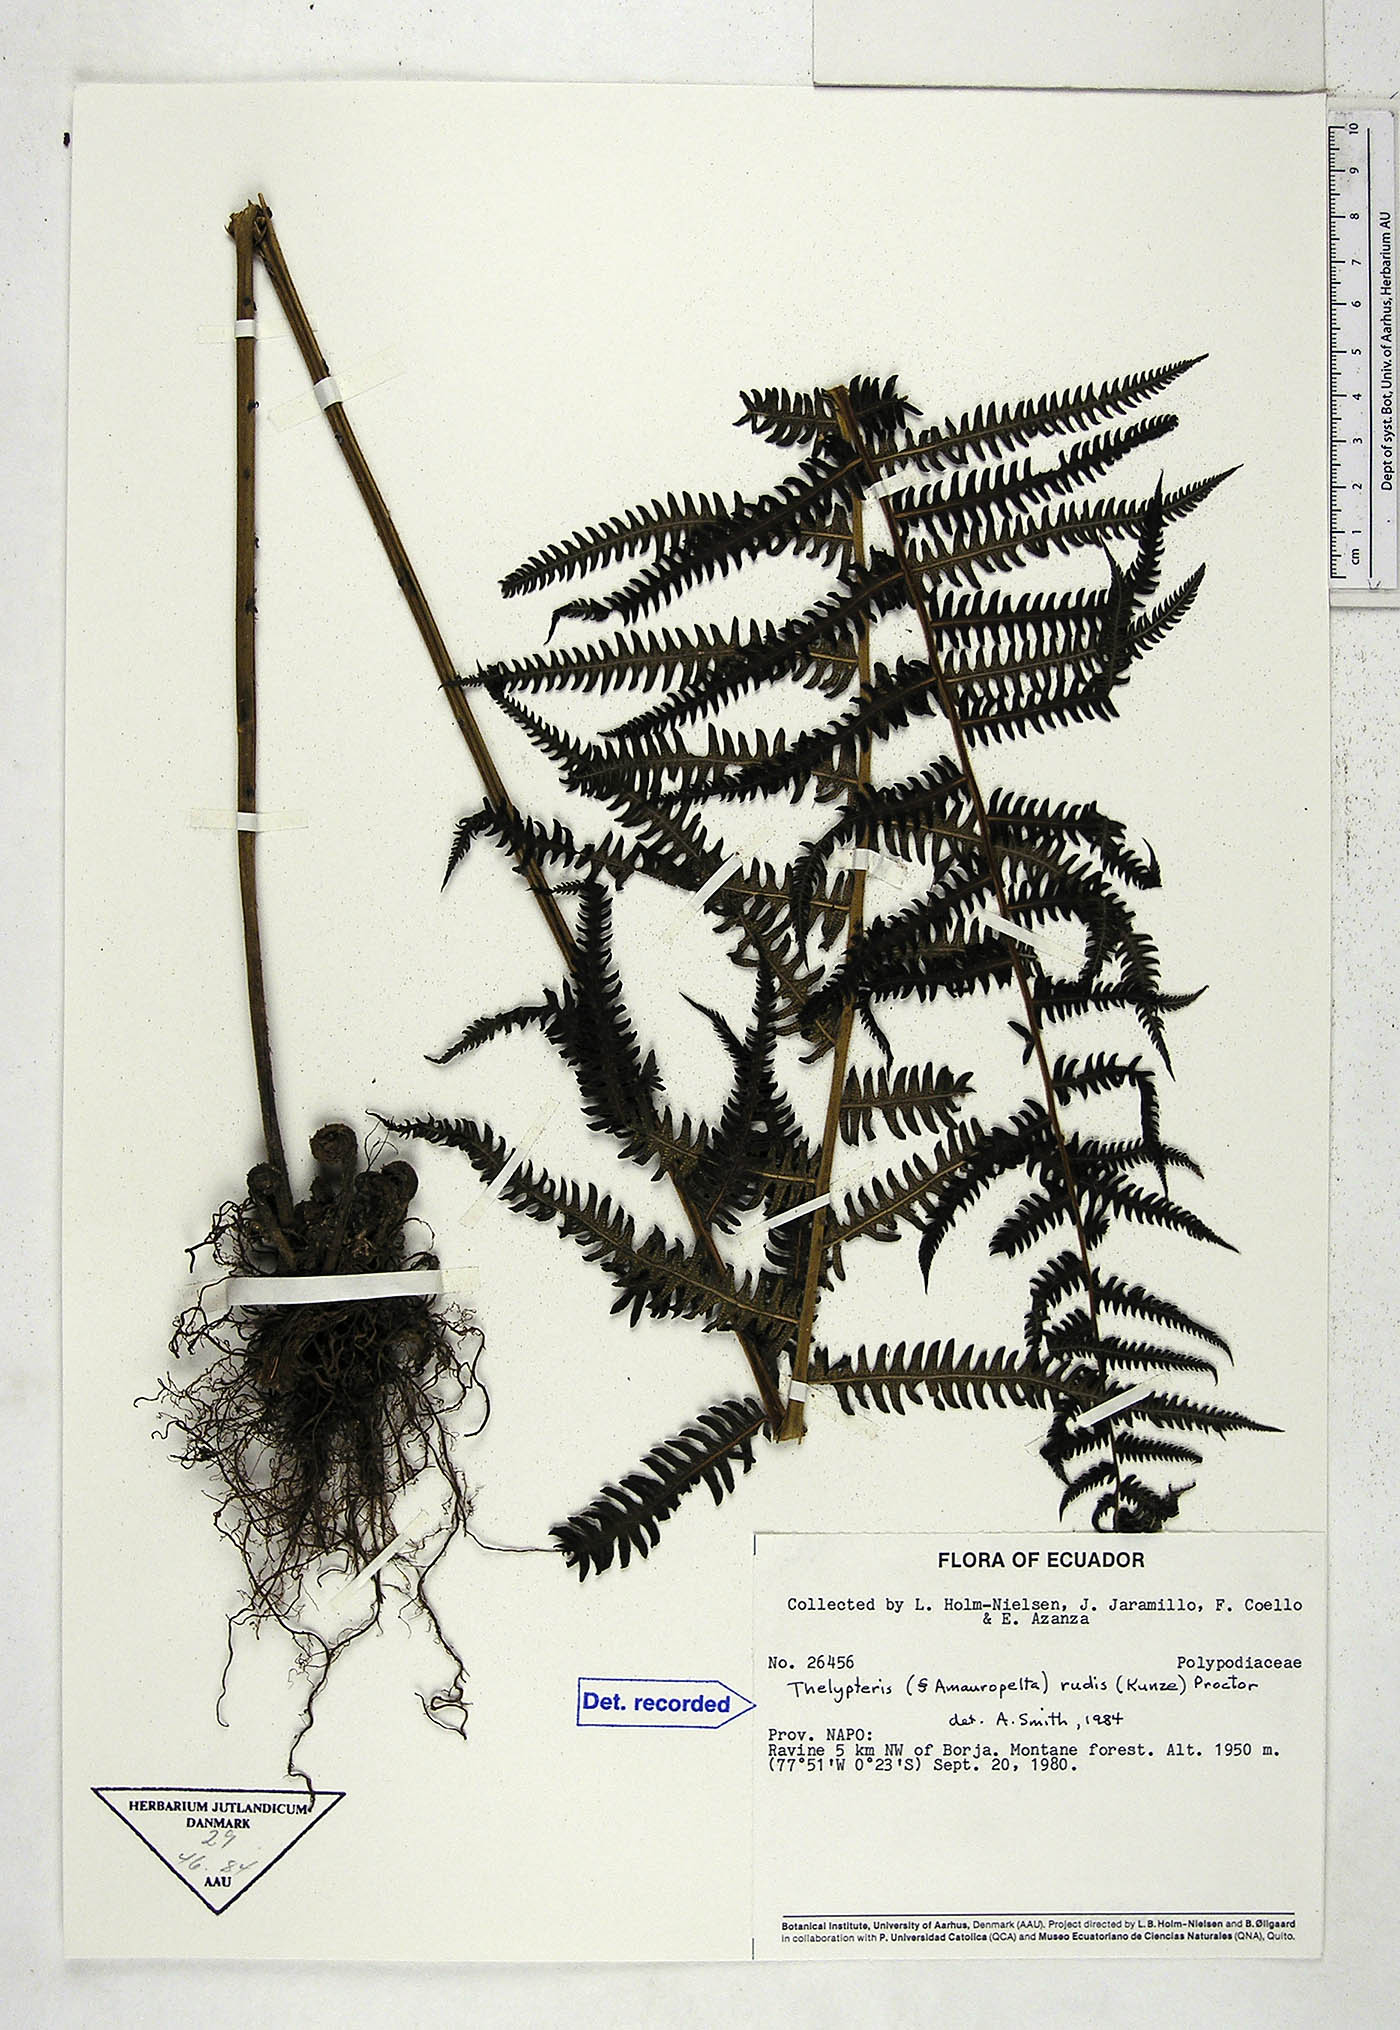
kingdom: Plantae
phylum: Tracheophyta
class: Polypodiopsida
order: Polypodiales
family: Thelypteridaceae
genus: Amauropelta
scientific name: Amauropelta rudis
